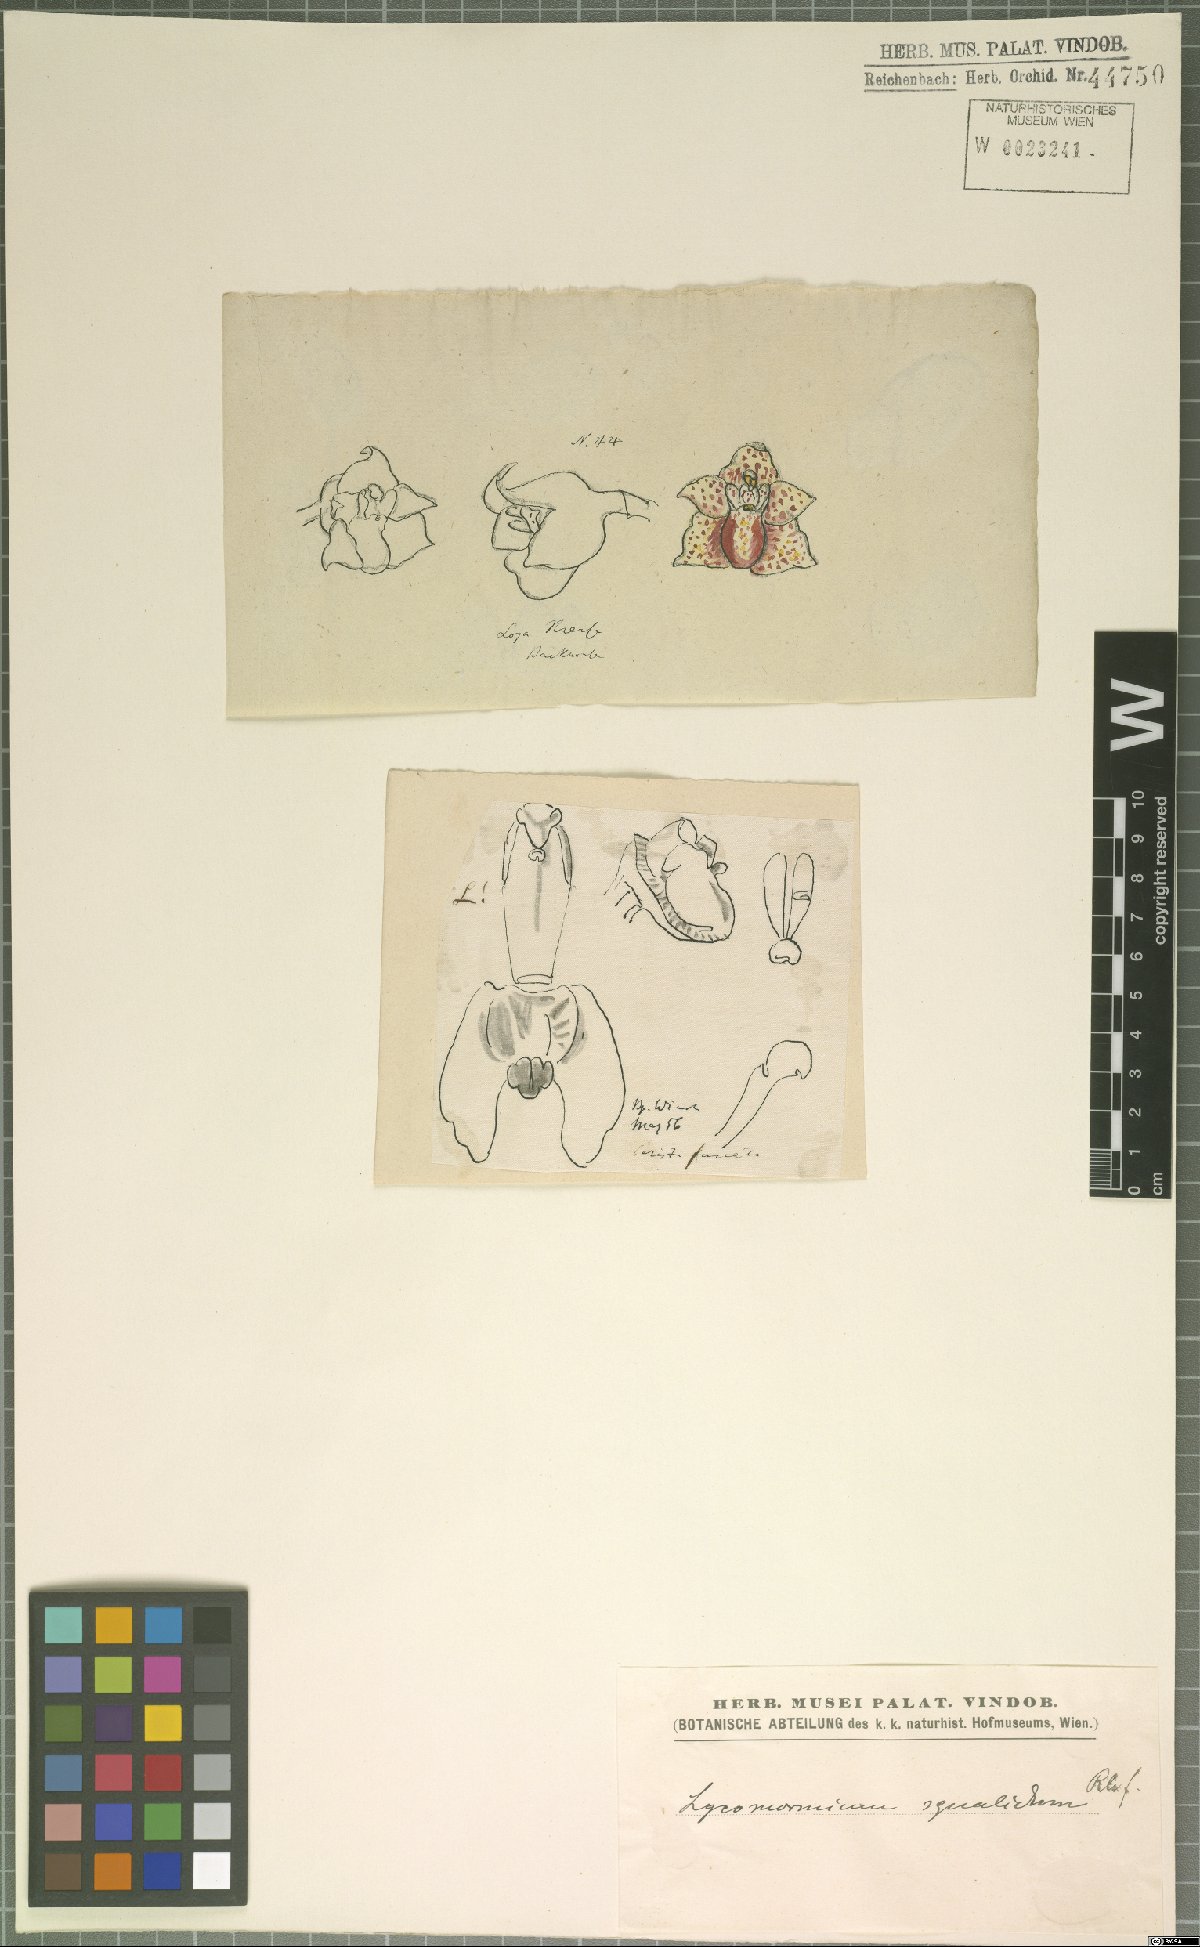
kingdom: Plantae
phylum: Tracheophyta
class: Liliopsida
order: Asparagales
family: Orchidaceae
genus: Lycomormium
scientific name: Lycomormium squalidum
